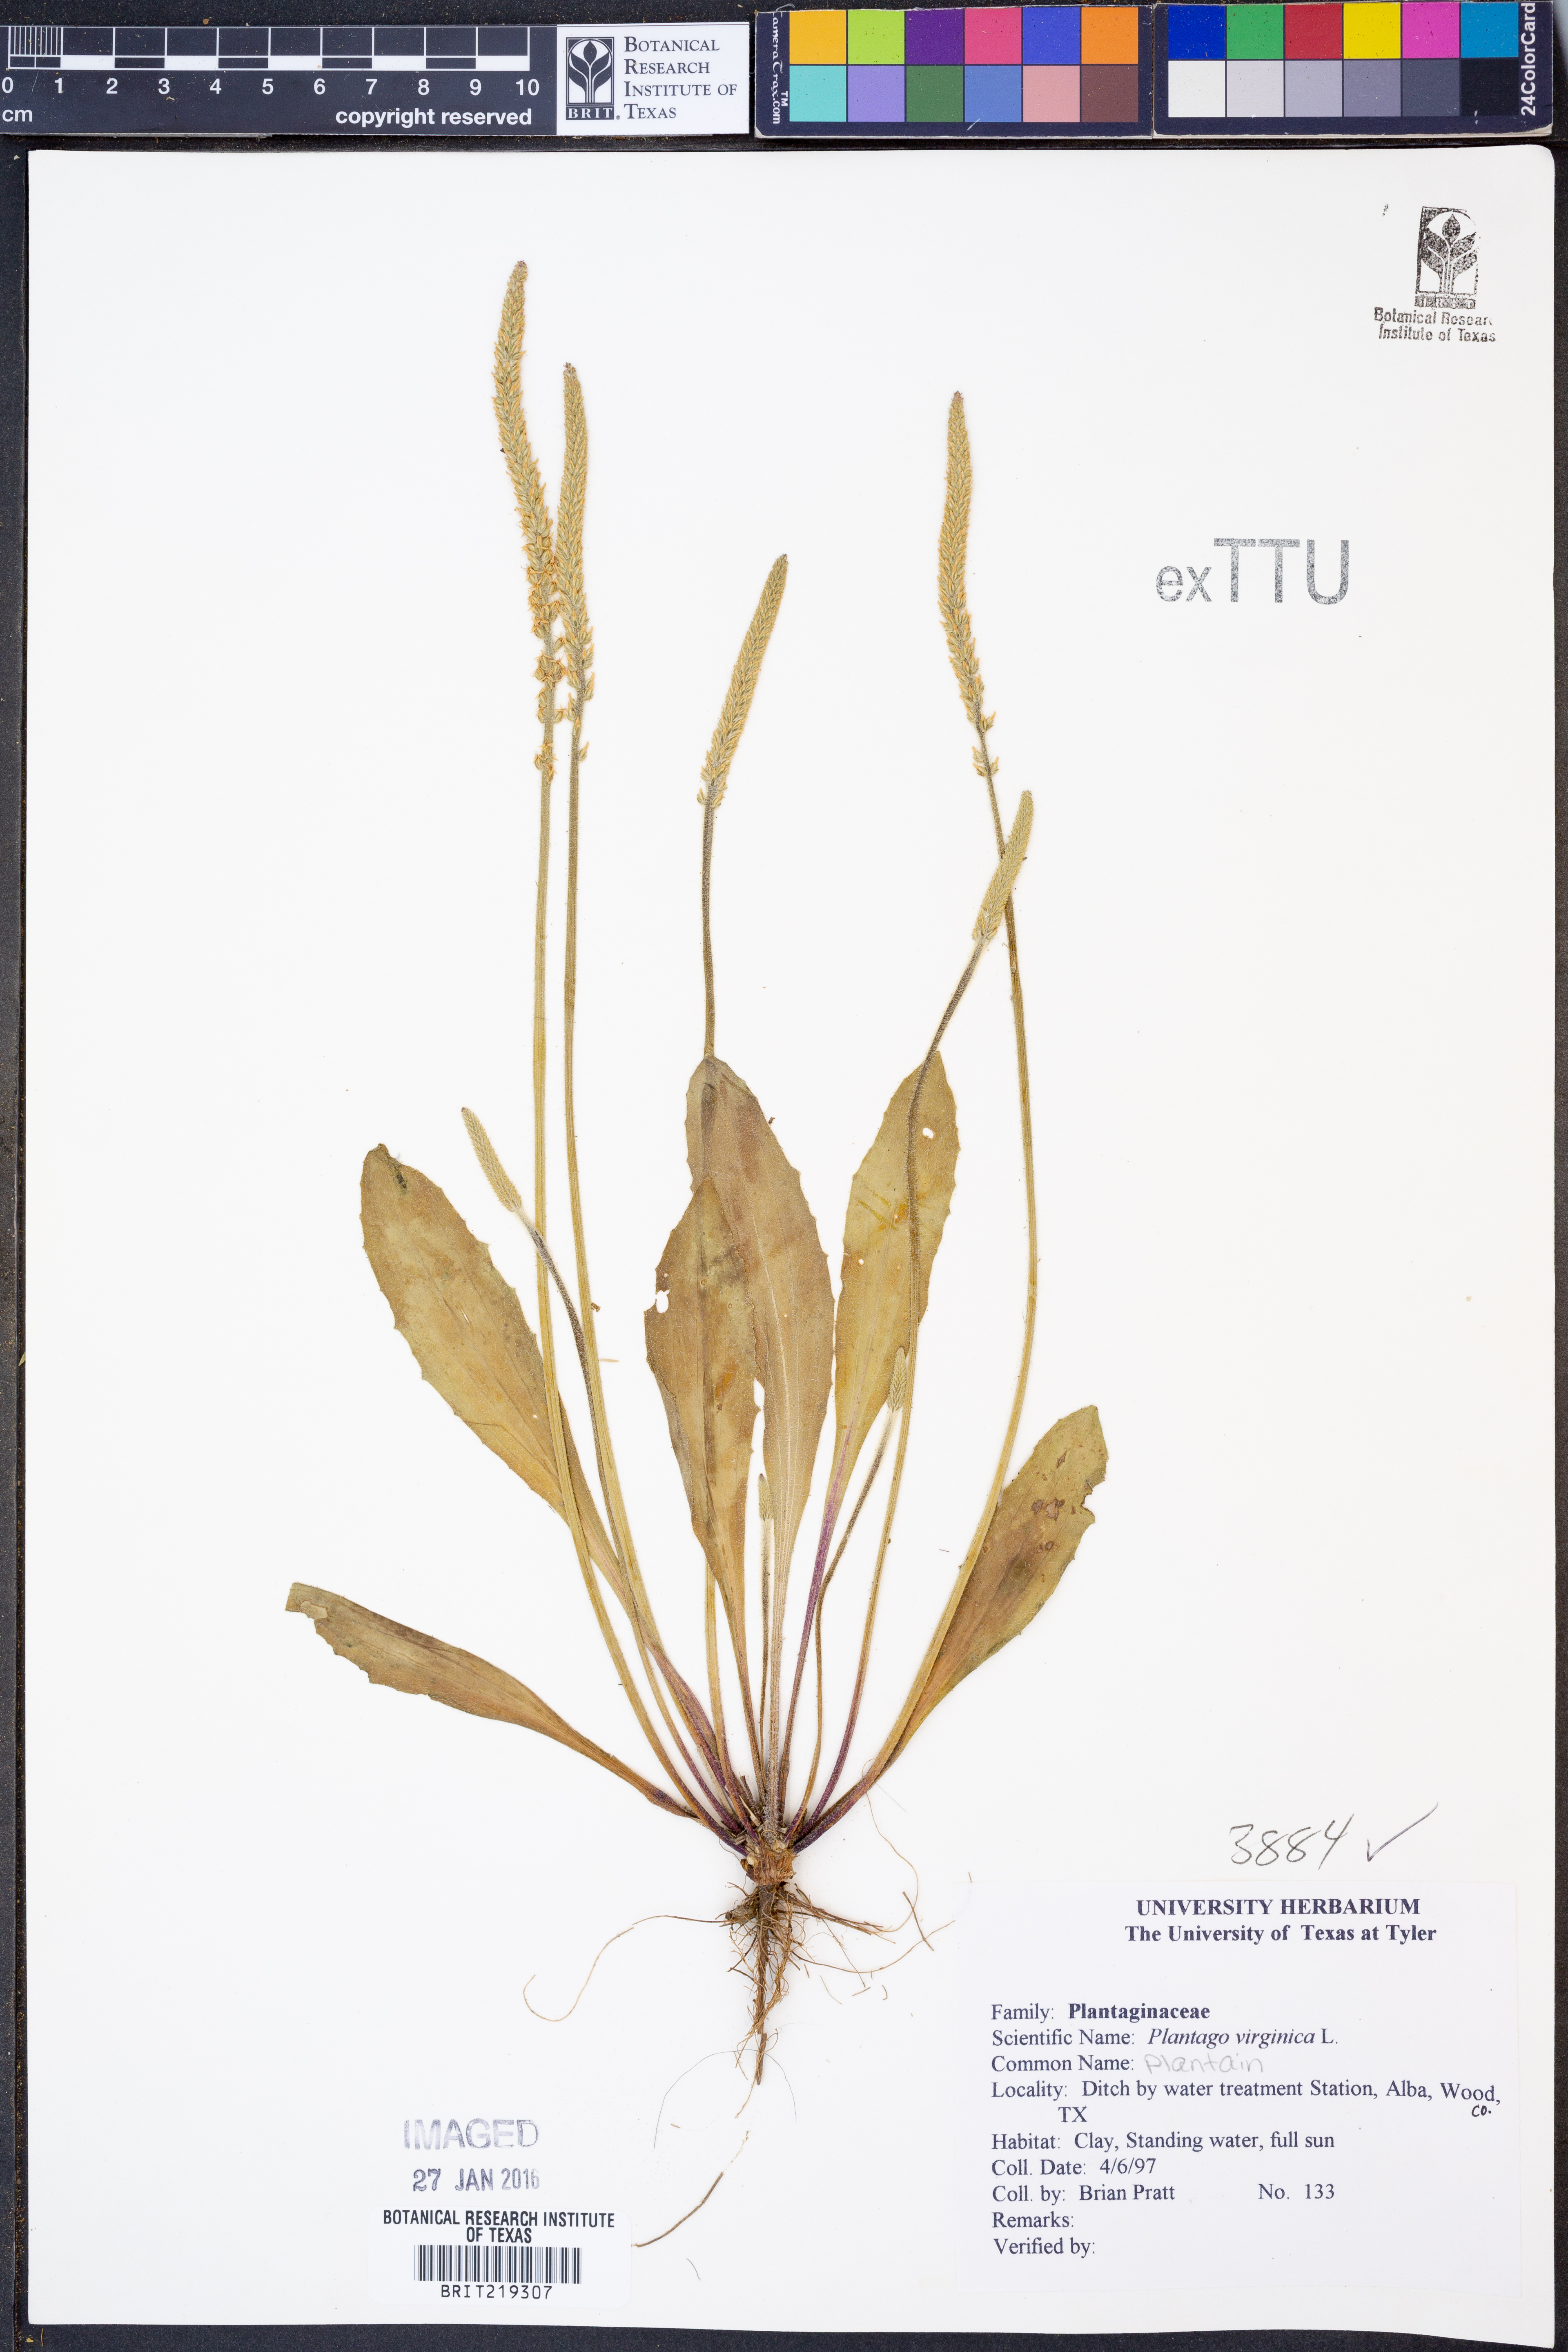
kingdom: Plantae
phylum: Tracheophyta
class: Magnoliopsida
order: Lamiales
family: Plantaginaceae
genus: Plantago
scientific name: Plantago virginica
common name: Hoary plantain
